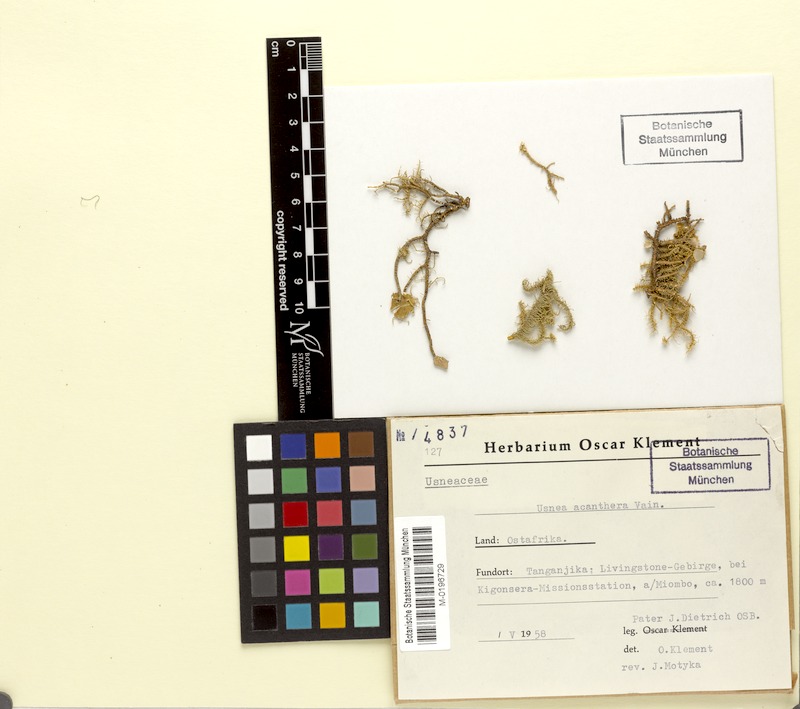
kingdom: Fungi
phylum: Ascomycota
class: Lecanoromycetes
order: Lecanorales
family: Parmeliaceae
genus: Usnea
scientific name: Usnea acanthera
